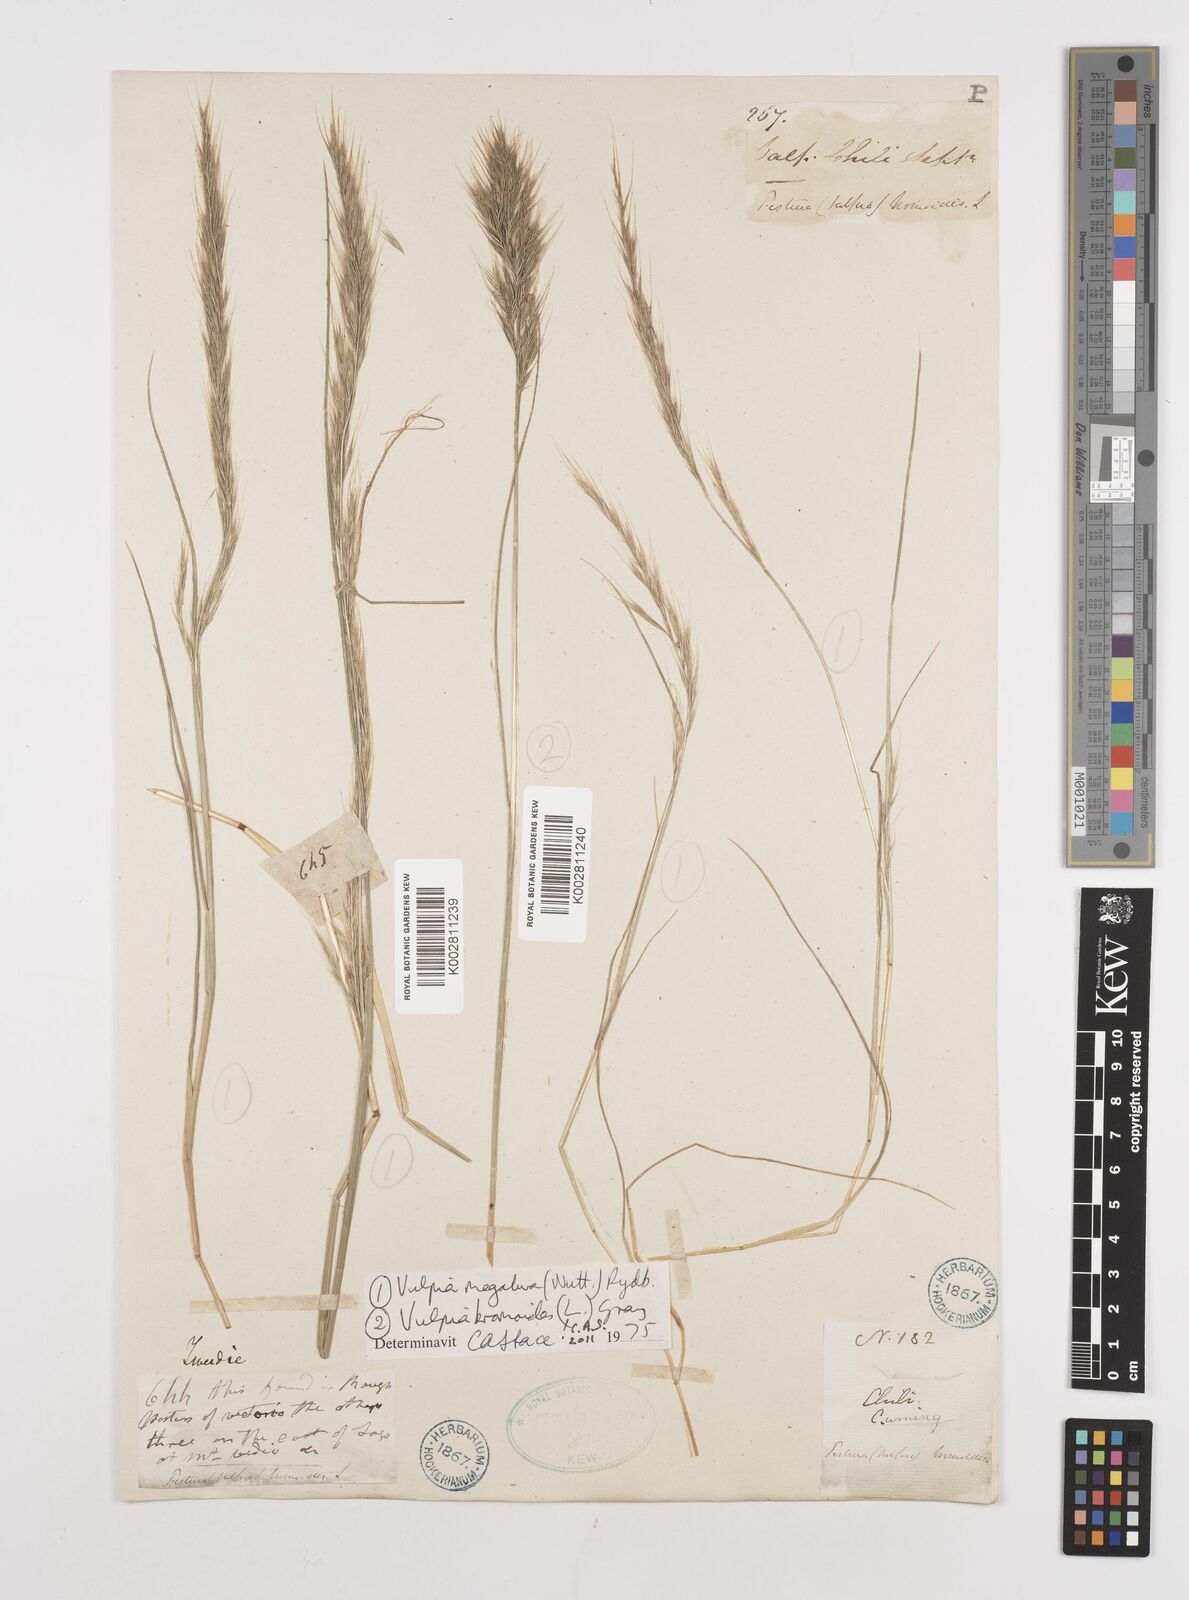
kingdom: Plantae
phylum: Tracheophyta
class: Liliopsida
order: Poales
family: Poaceae
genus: Festuca
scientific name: Festuca
